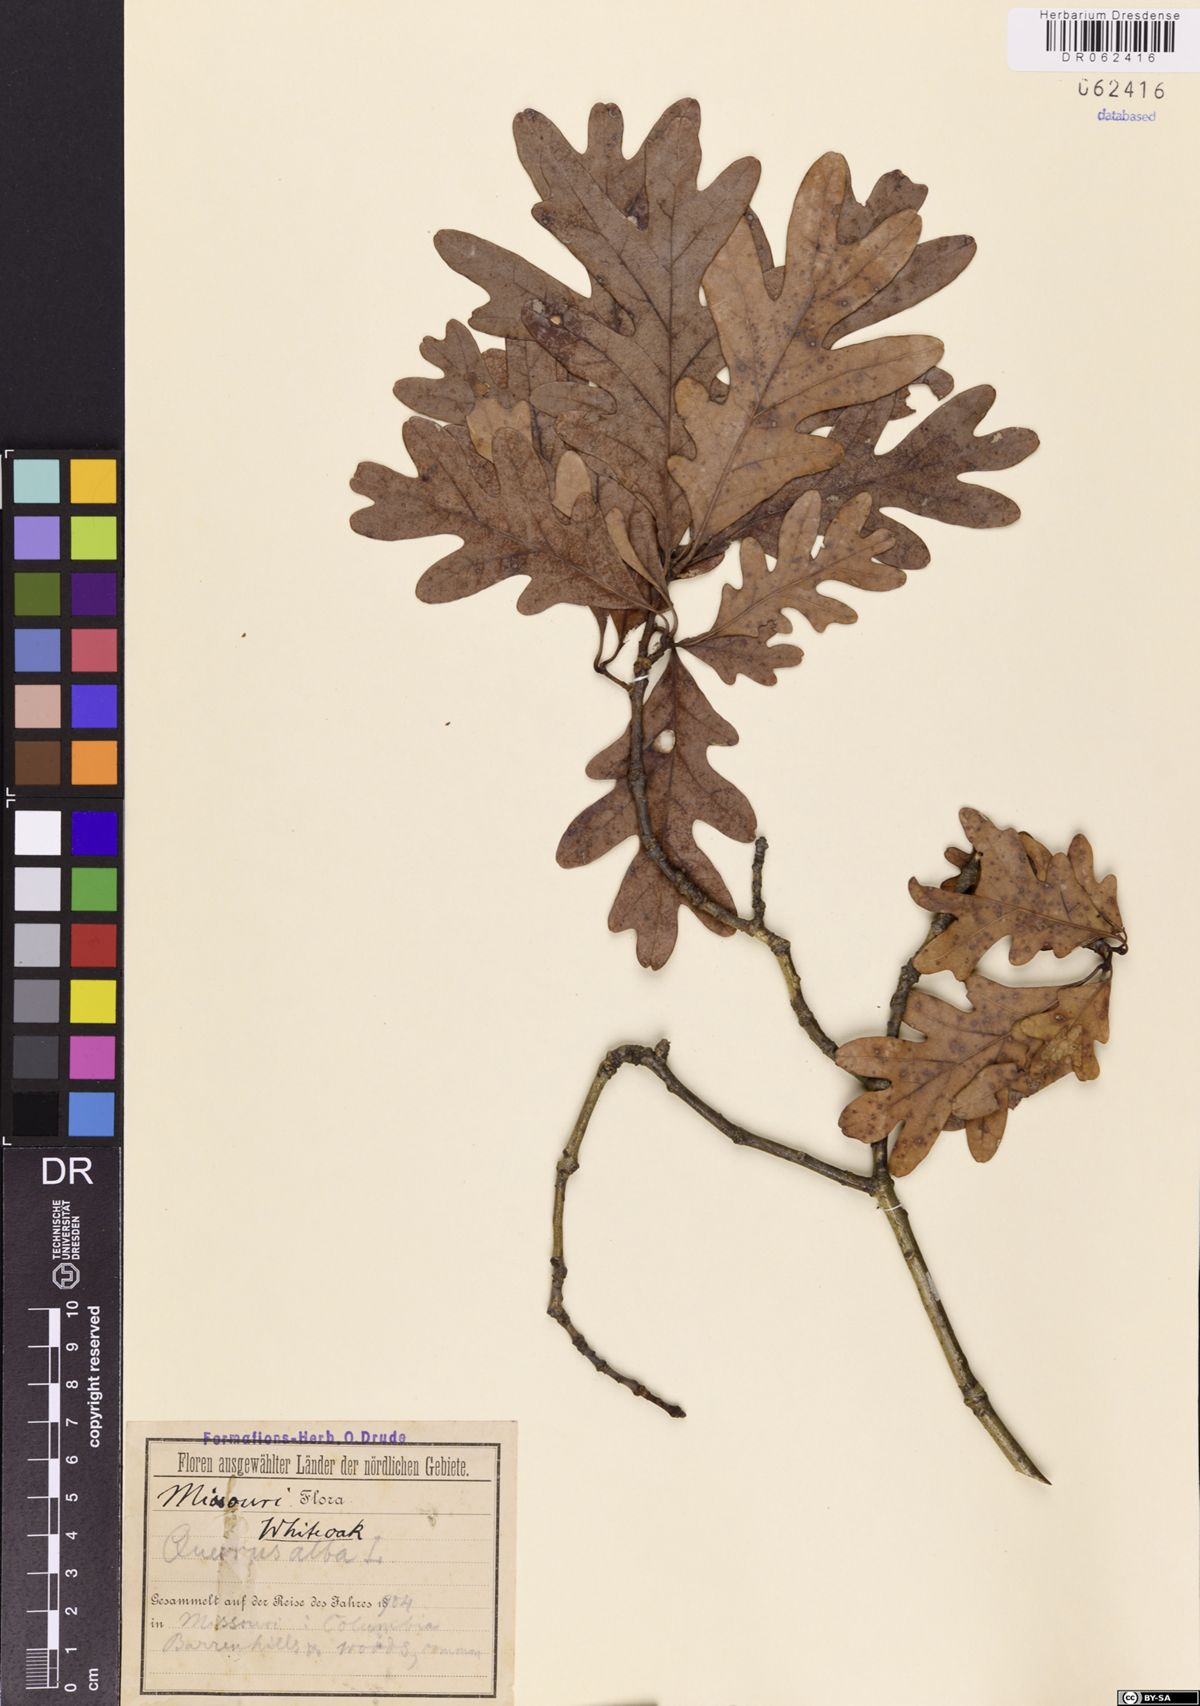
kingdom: Plantae
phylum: Tracheophyta
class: Magnoliopsida
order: Fagales
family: Fagaceae
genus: Quercus
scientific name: Quercus alba
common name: White oak
